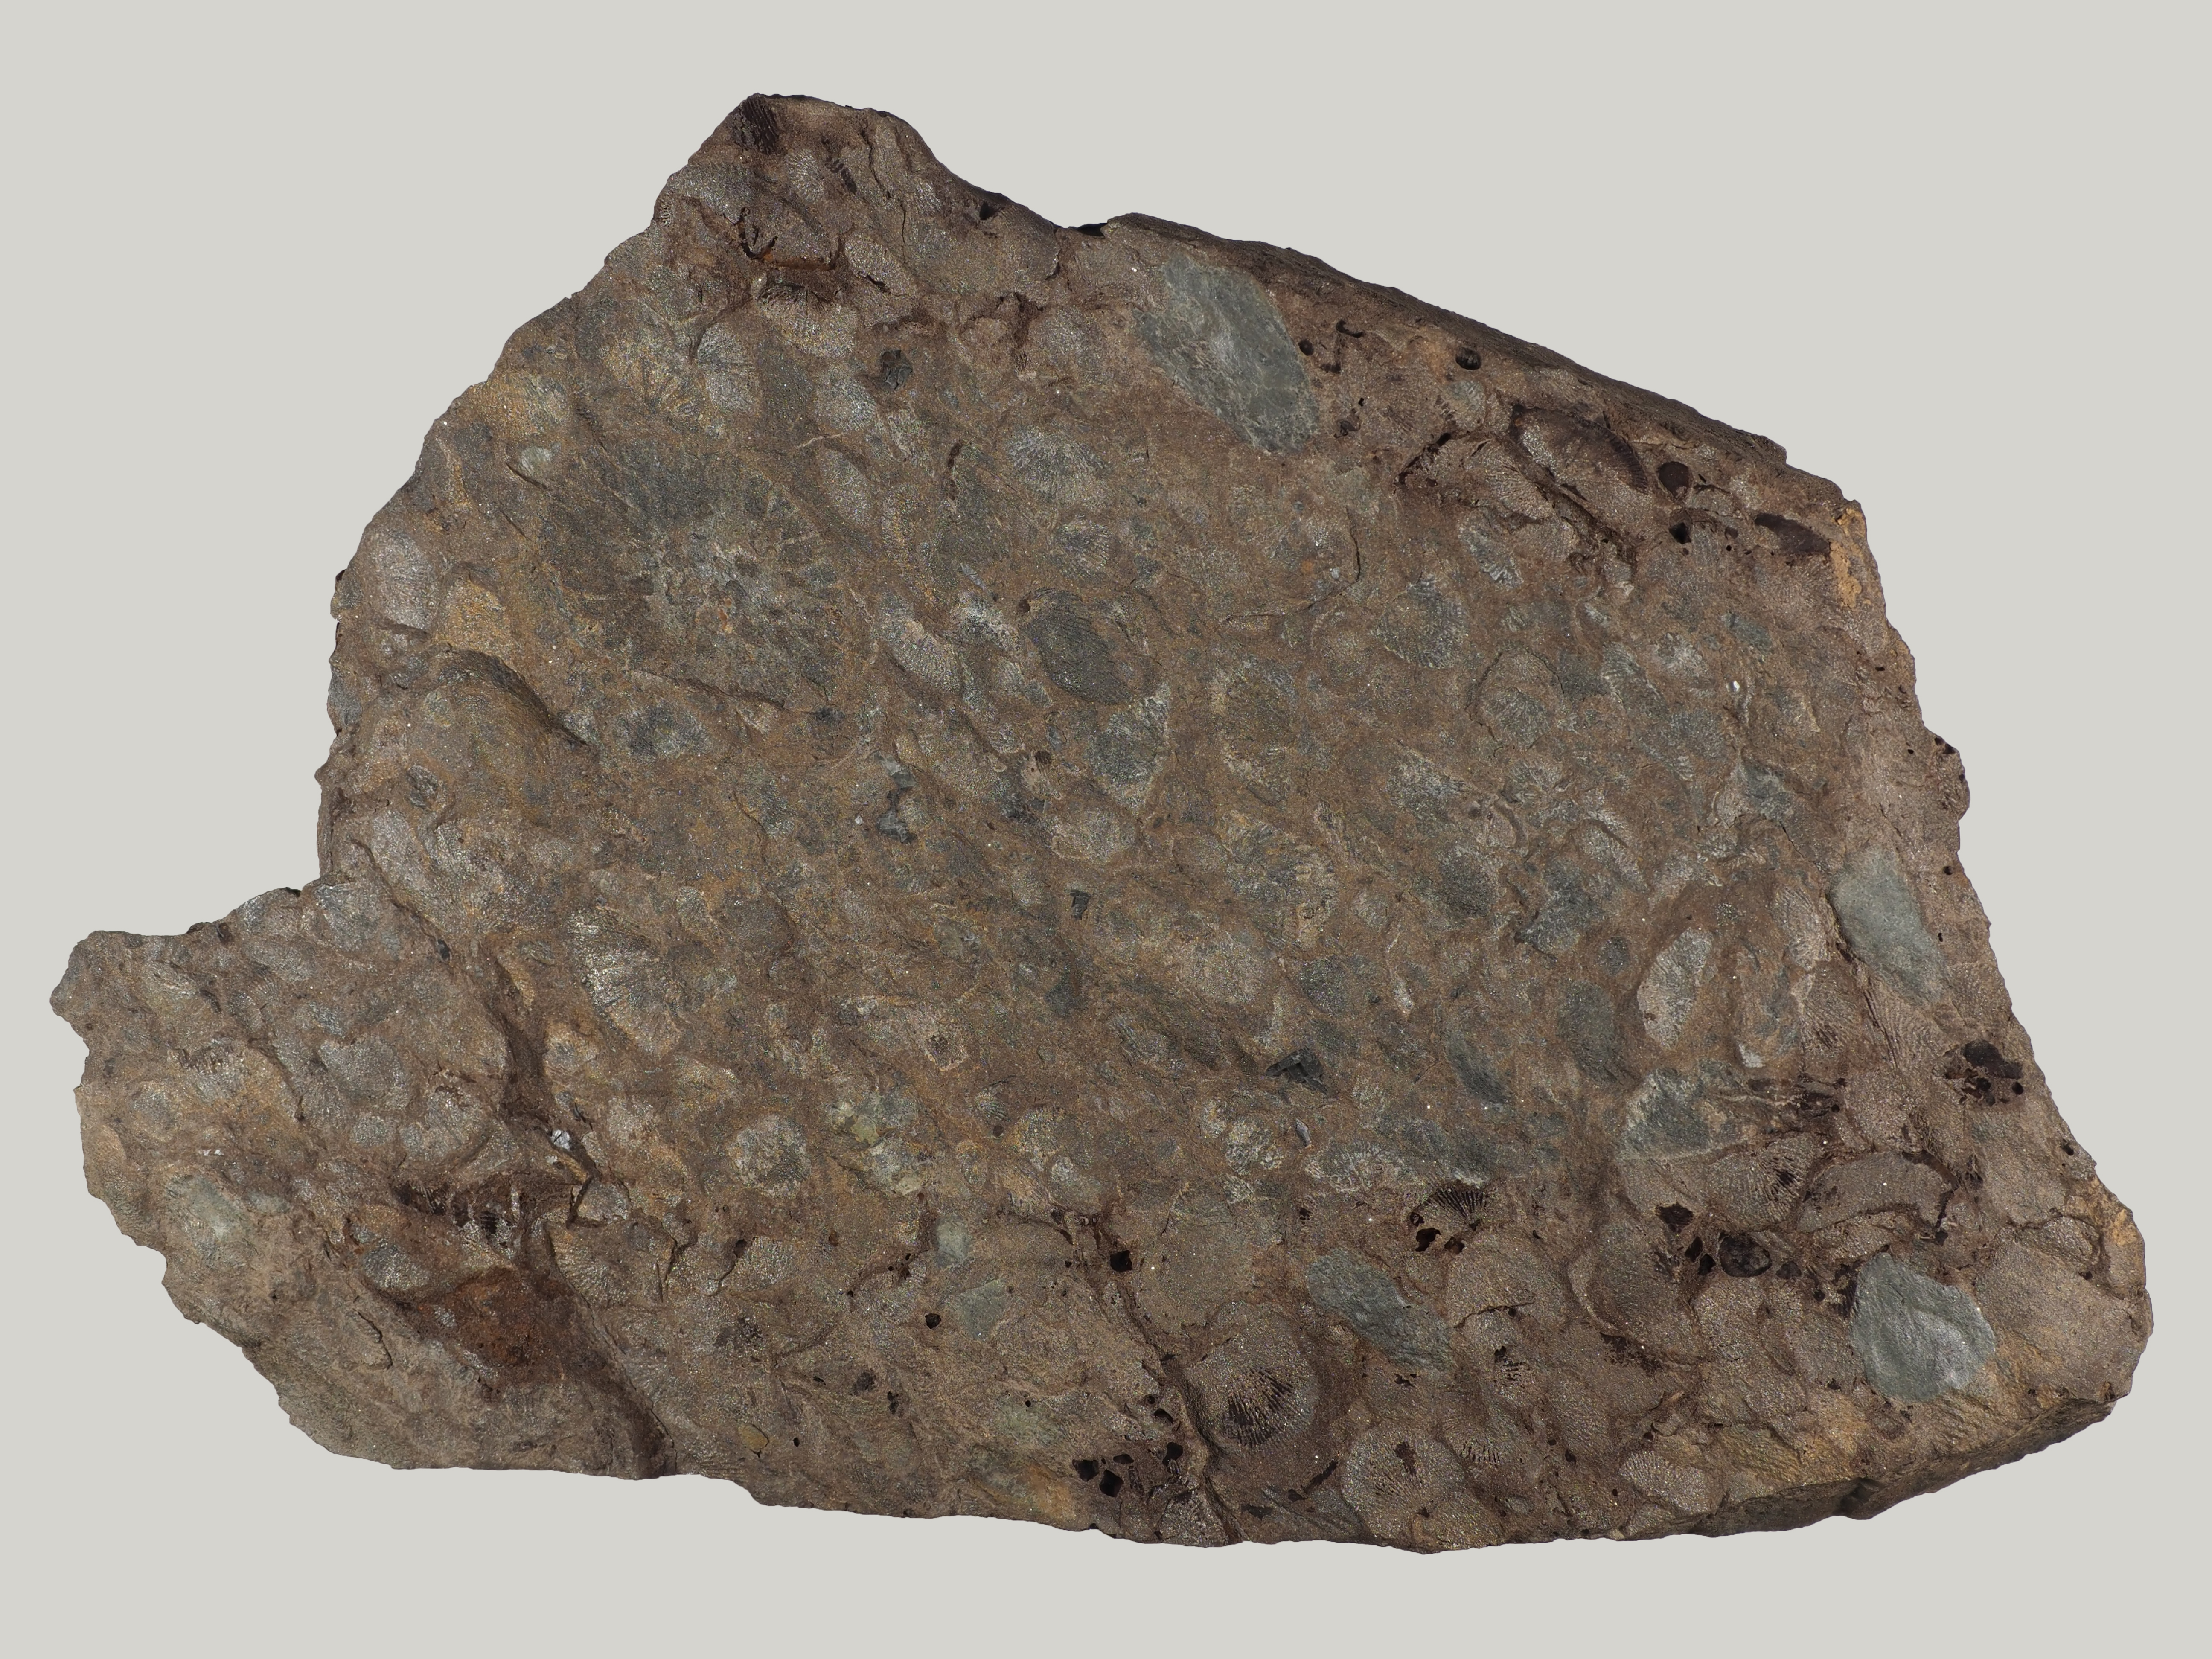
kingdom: Animalia
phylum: Cnidaria
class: Anthozoa
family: Micheliniidae
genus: Pleurodictyum
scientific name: Pleurodictyum
